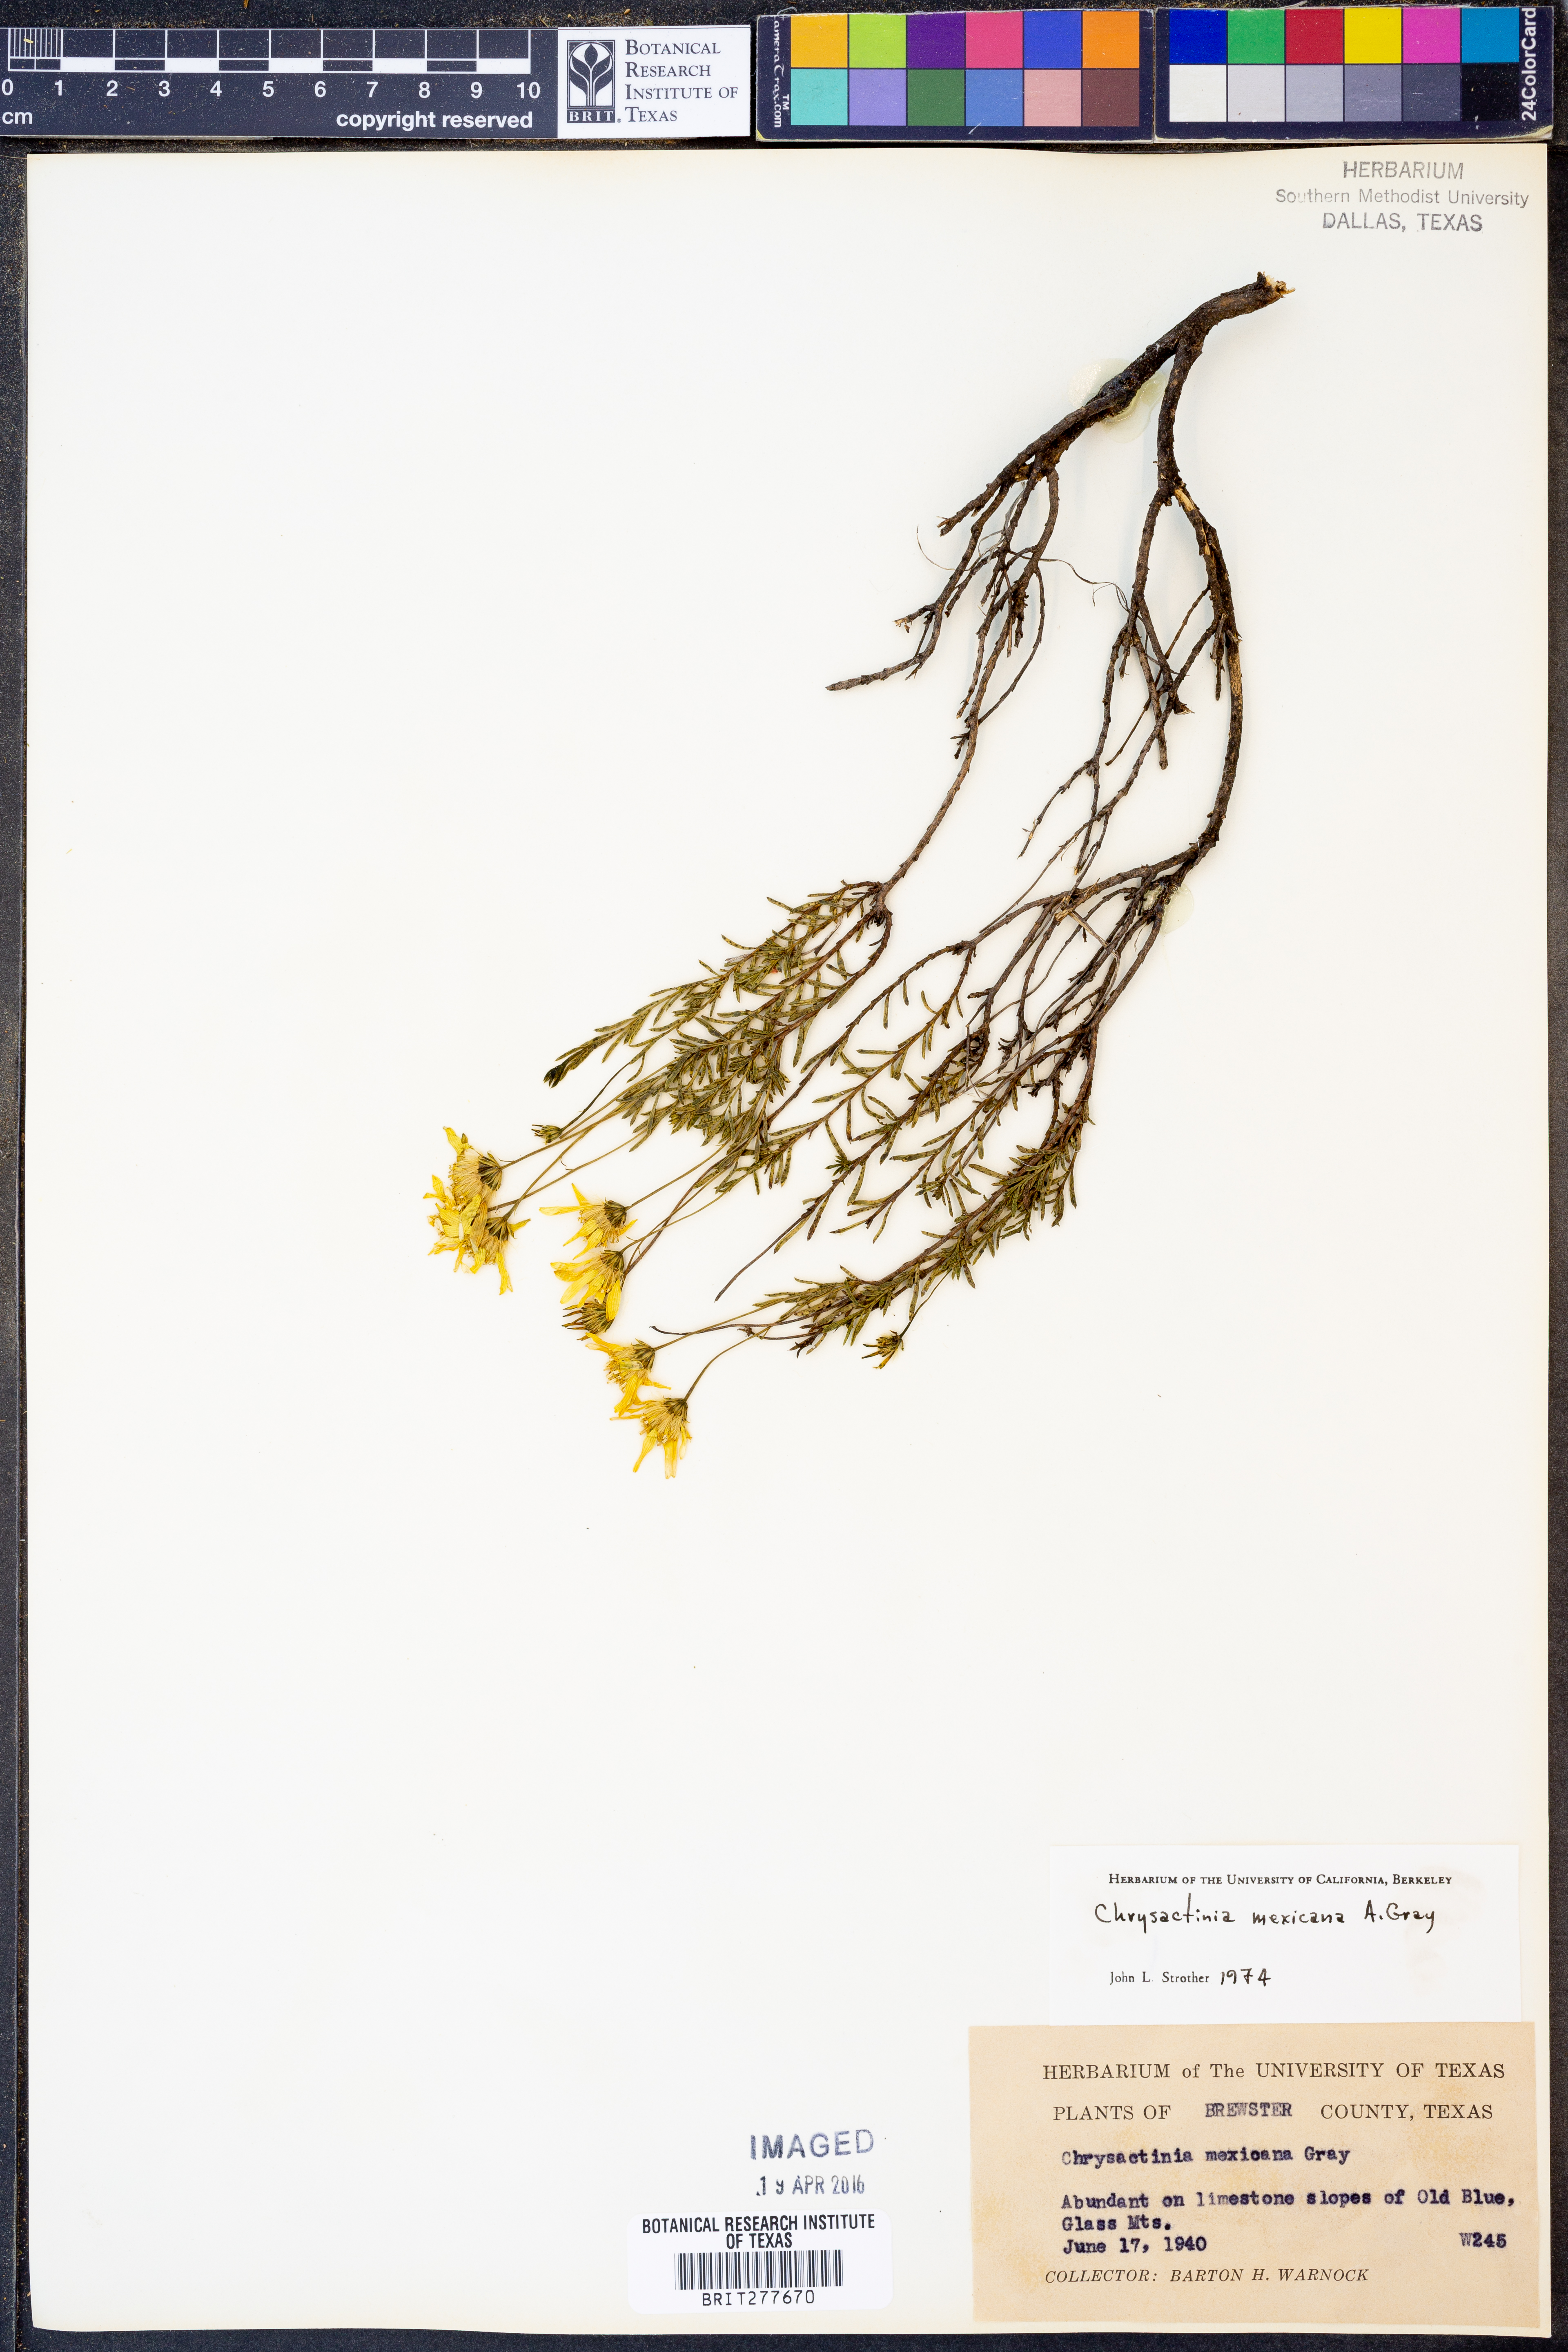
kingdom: Plantae
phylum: Tracheophyta
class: Magnoliopsida
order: Asterales
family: Asteraceae
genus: Chrysactinia
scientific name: Chrysactinia mexicana
